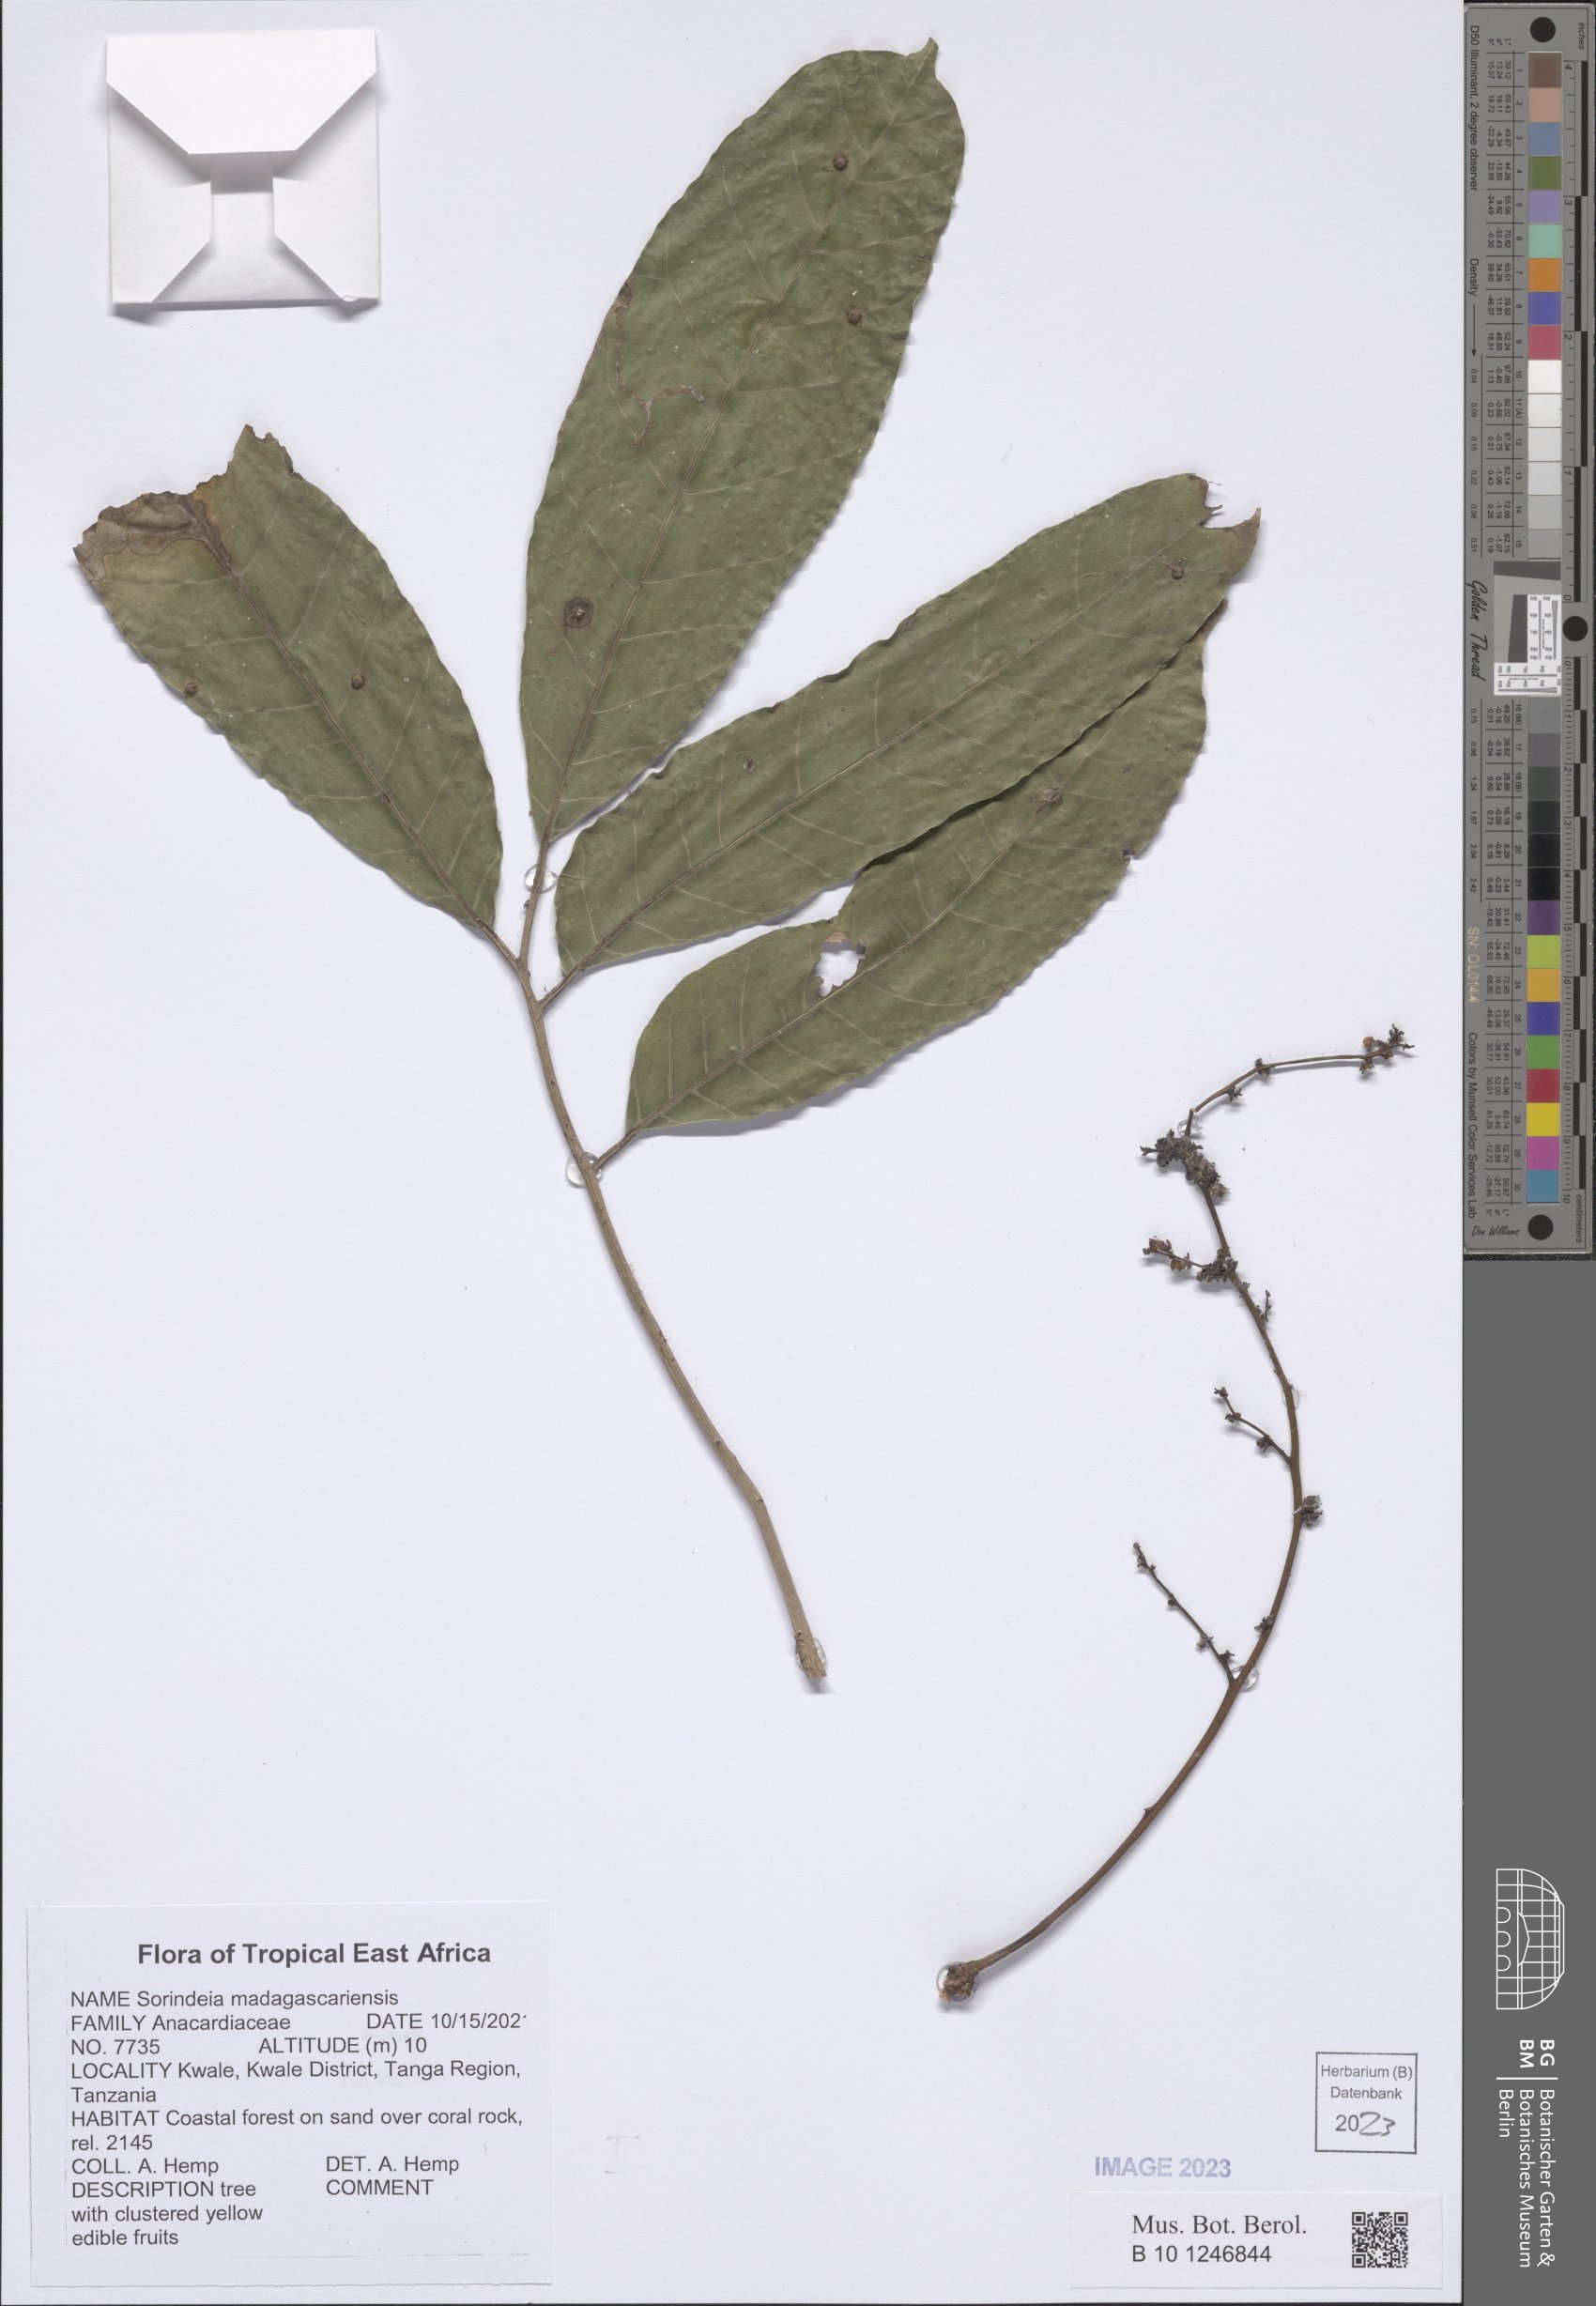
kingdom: Plantae
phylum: Tracheophyta
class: Magnoliopsida
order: Sapindales
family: Anacardiaceae
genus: Sorindeia
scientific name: Sorindeia madagascariensis
